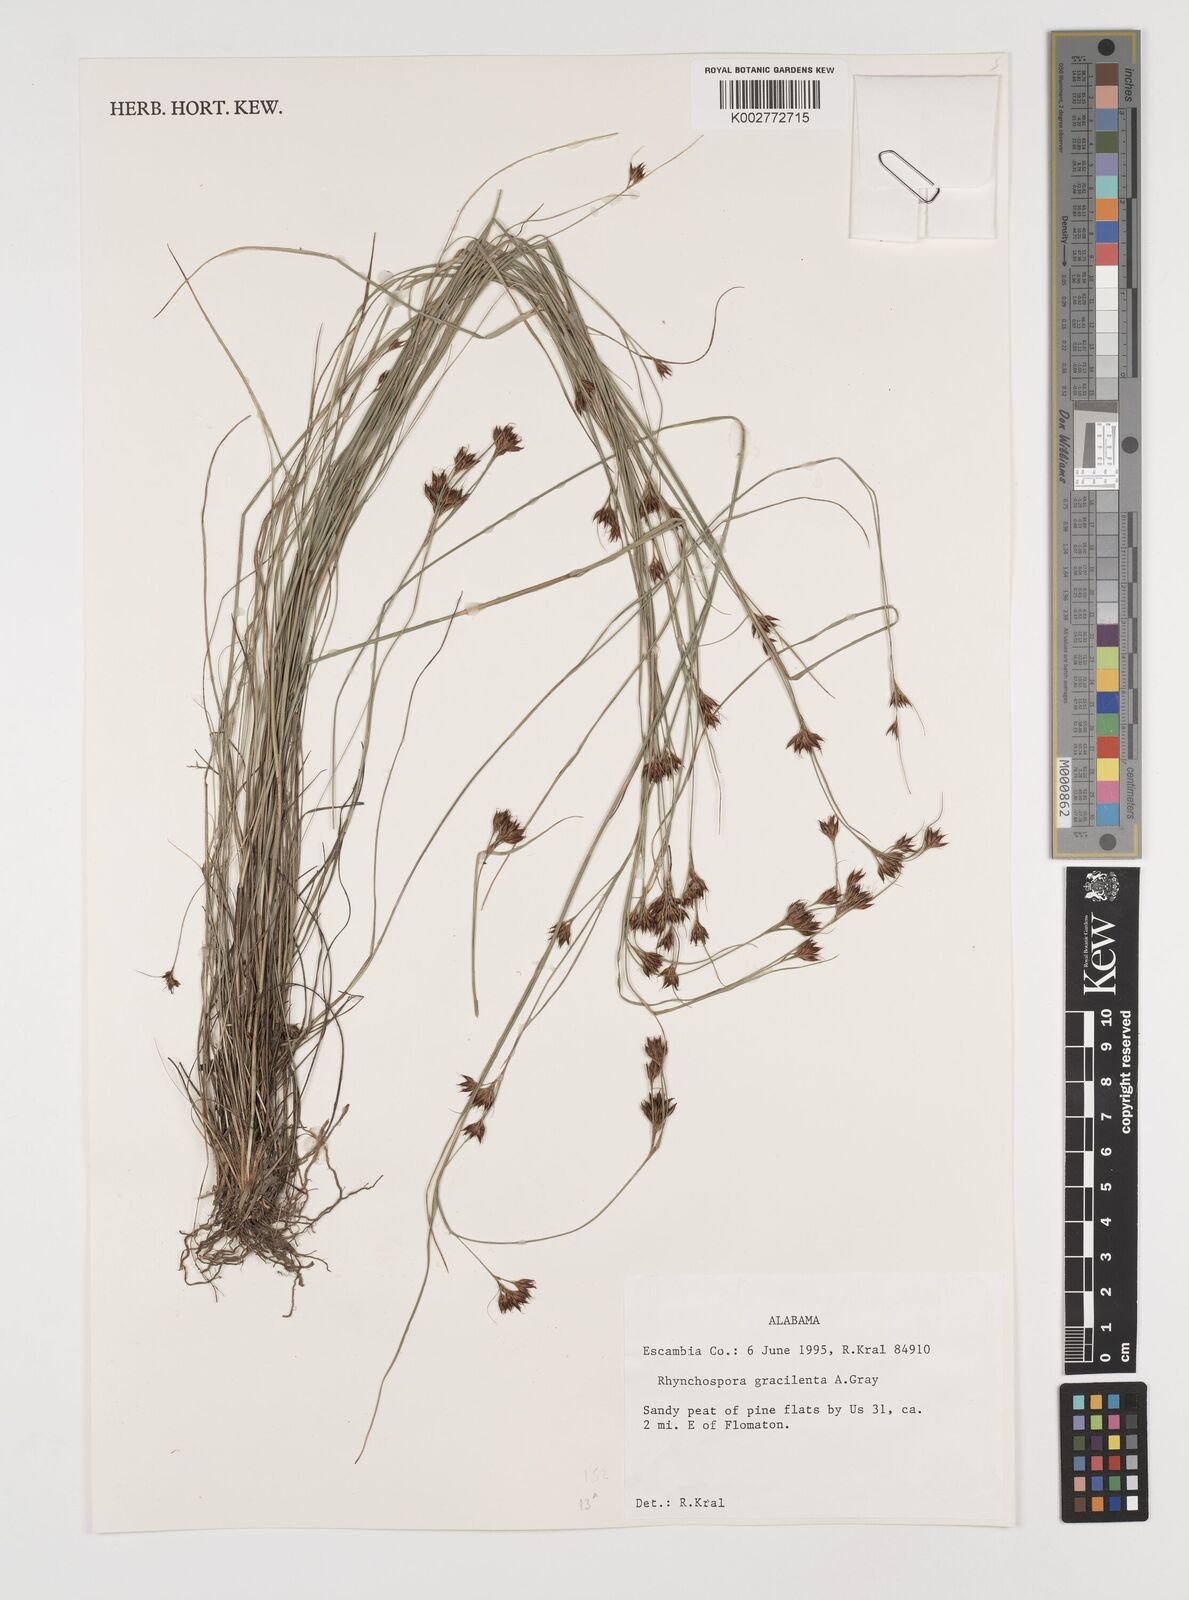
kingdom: Plantae
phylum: Tracheophyta
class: Liliopsida
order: Poales
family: Cyperaceae
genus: Rhynchospora
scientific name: Rhynchospora gracilenta
